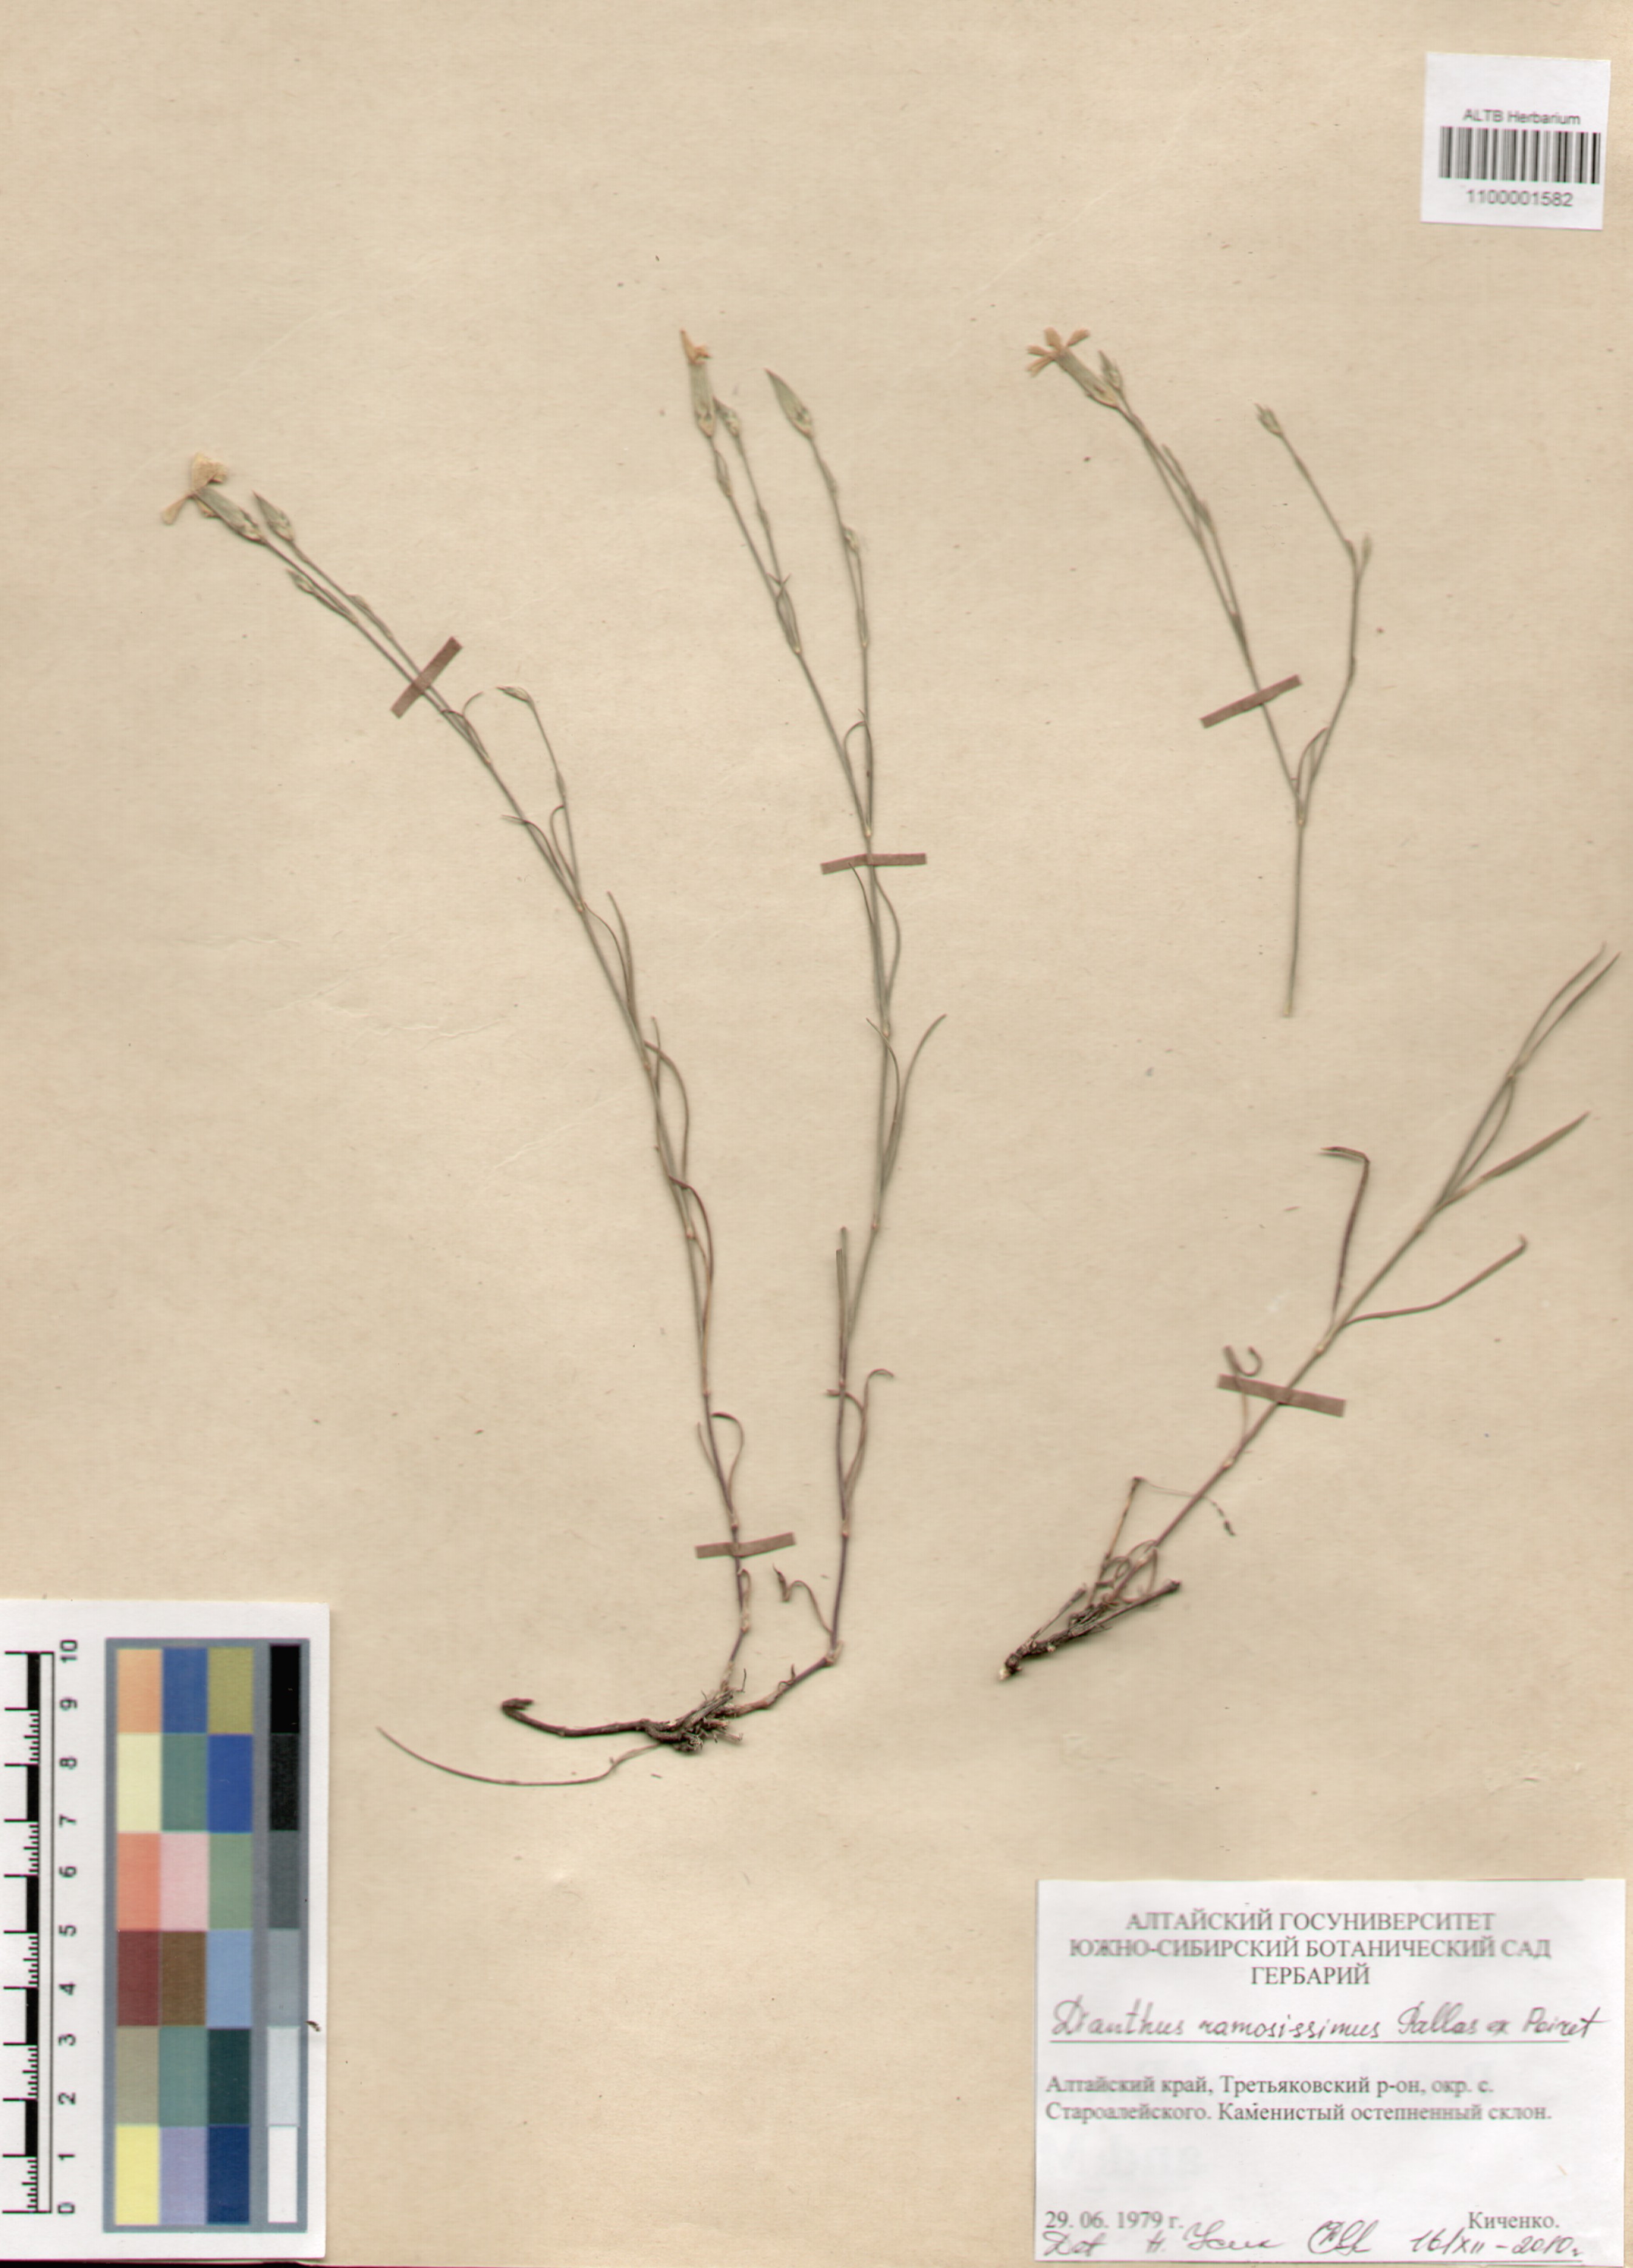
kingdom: Plantae
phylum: Tracheophyta
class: Magnoliopsida
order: Caryophyllales
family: Caryophyllaceae
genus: Dianthus
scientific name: Dianthus ramosissimus
